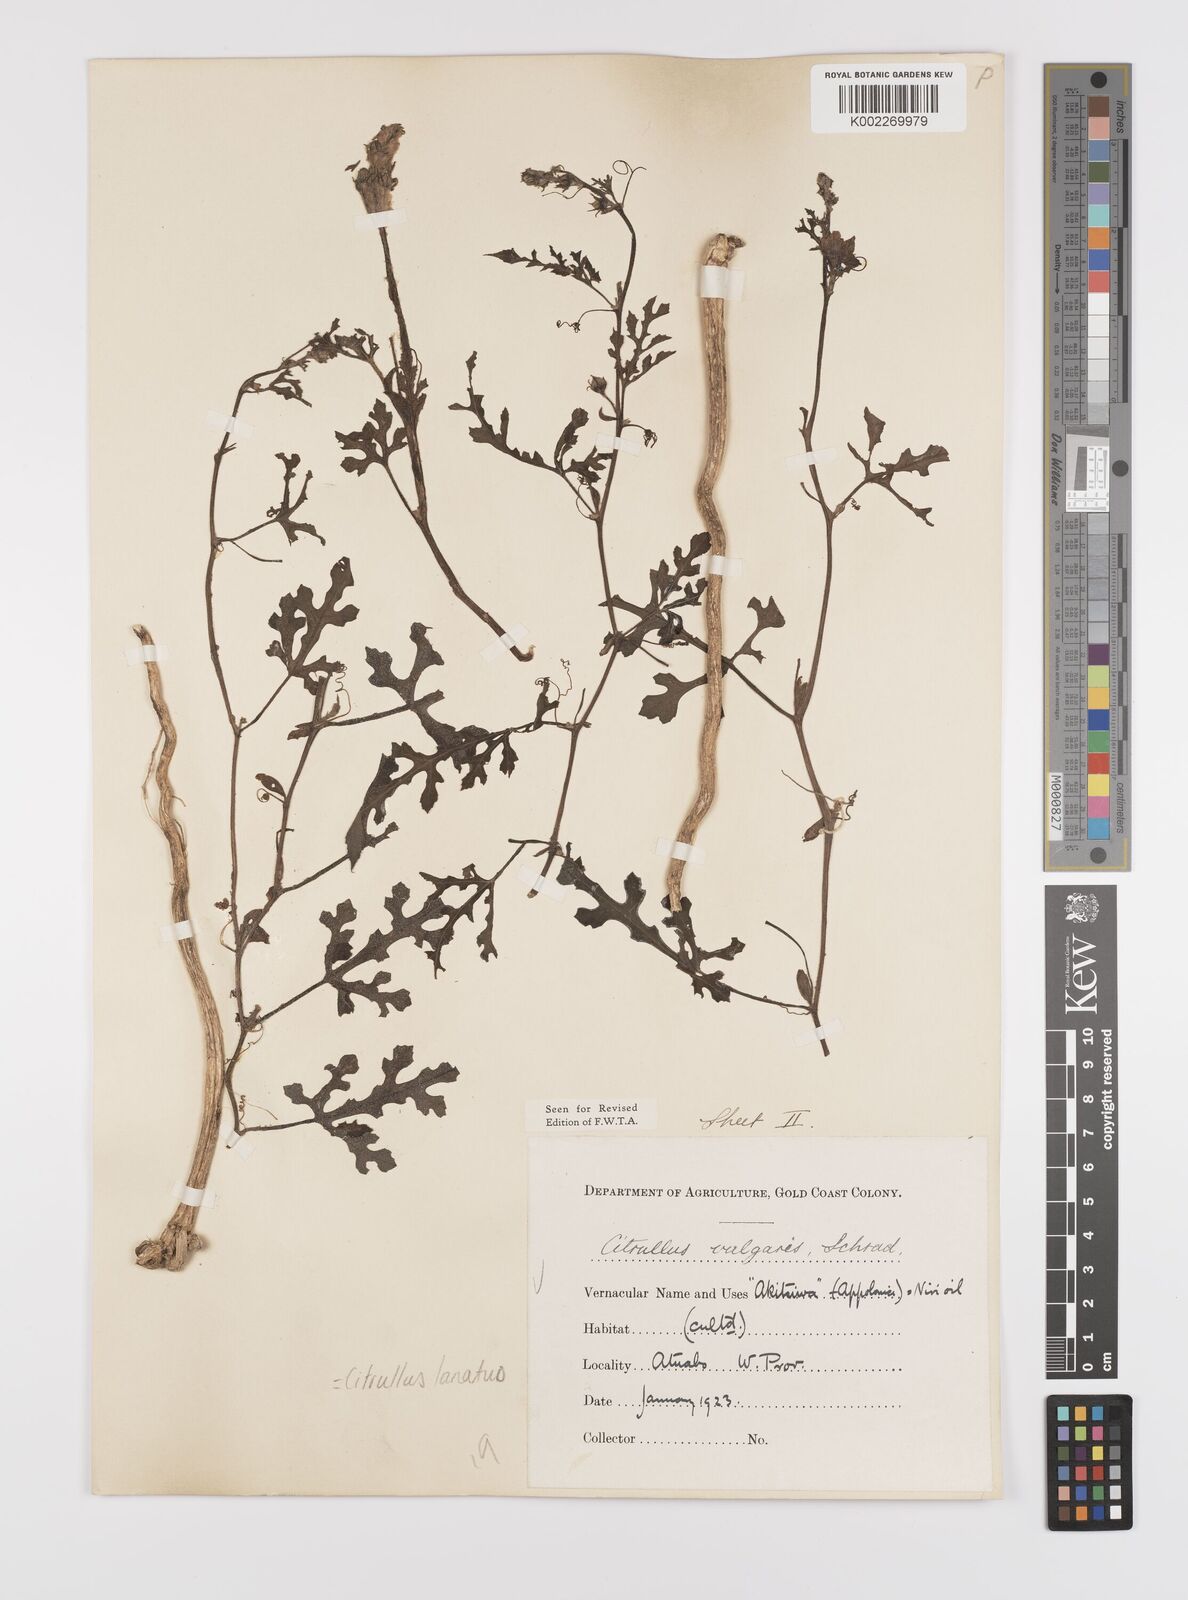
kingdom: Plantae
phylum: Tracheophyta
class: Magnoliopsida
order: Cucurbitales
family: Cucurbitaceae
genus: Citrullus
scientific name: Citrullus lanatus
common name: Watermelon
